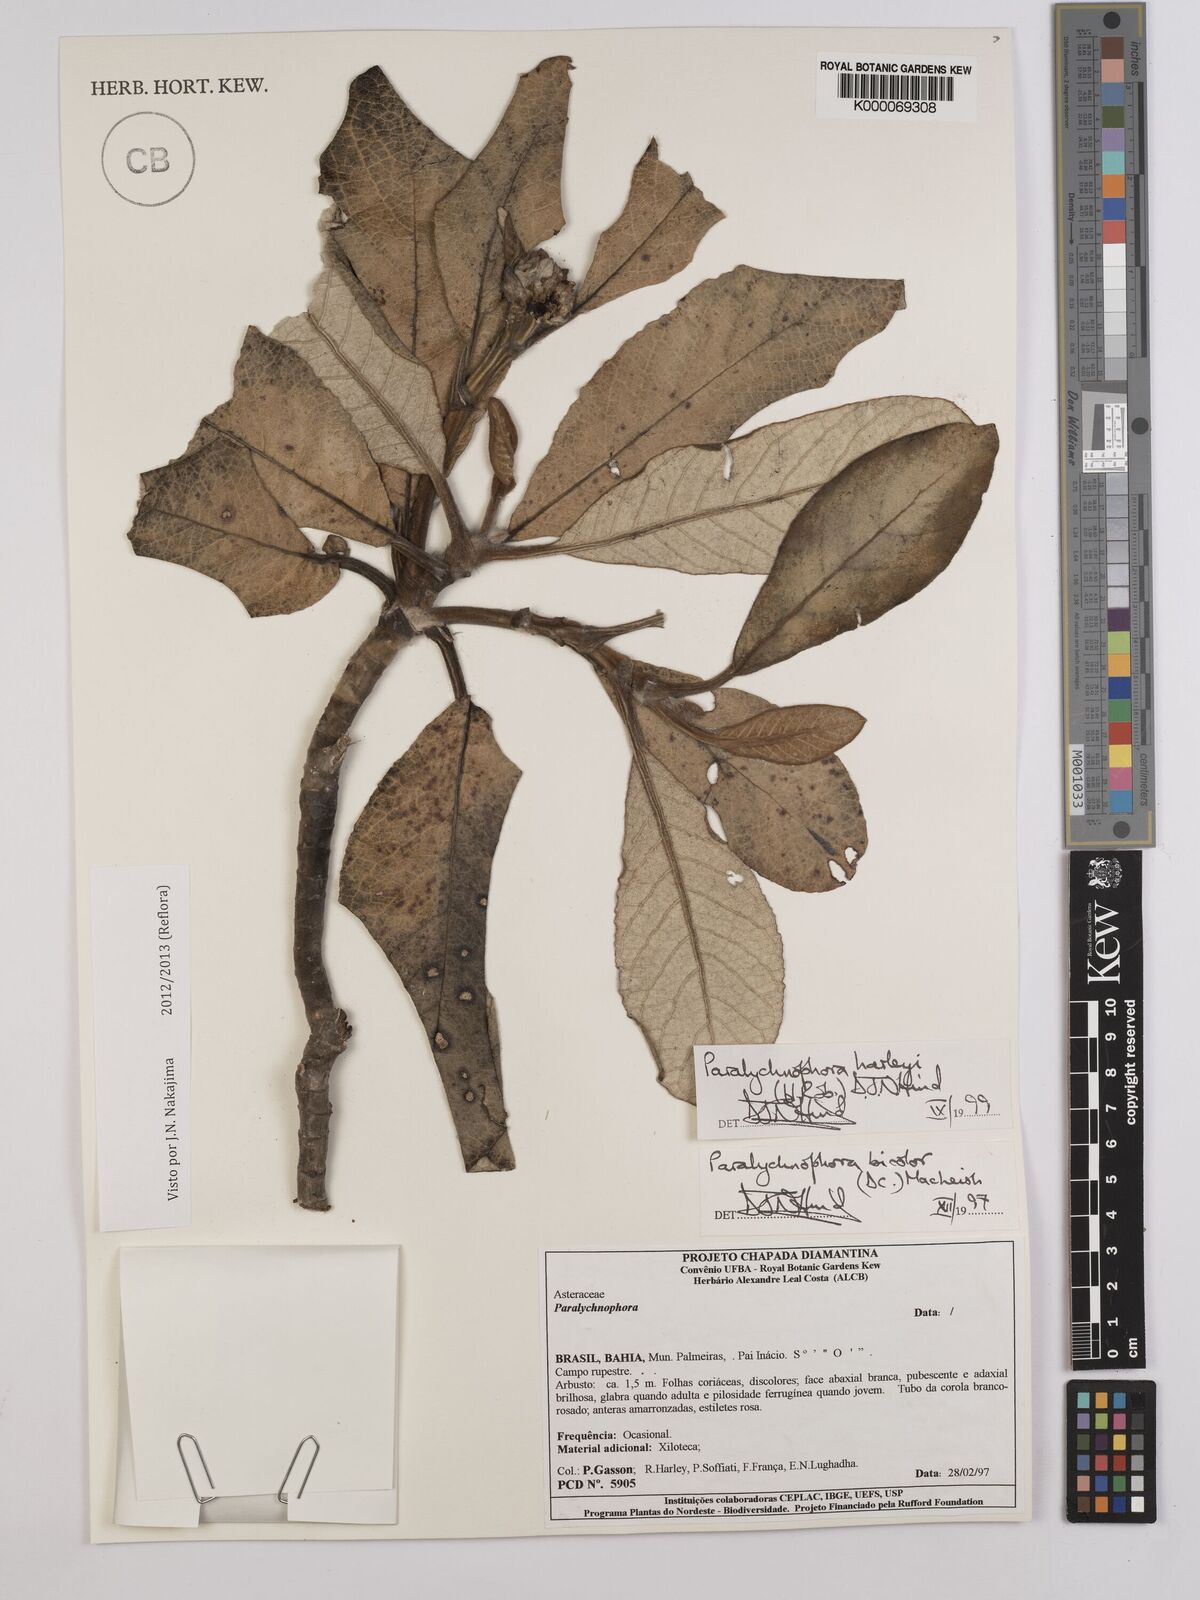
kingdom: Plantae
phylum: Tracheophyta
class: Magnoliopsida
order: Asterales
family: Asteraceae
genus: Paralychnophora
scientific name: Paralychnophora harleyi
